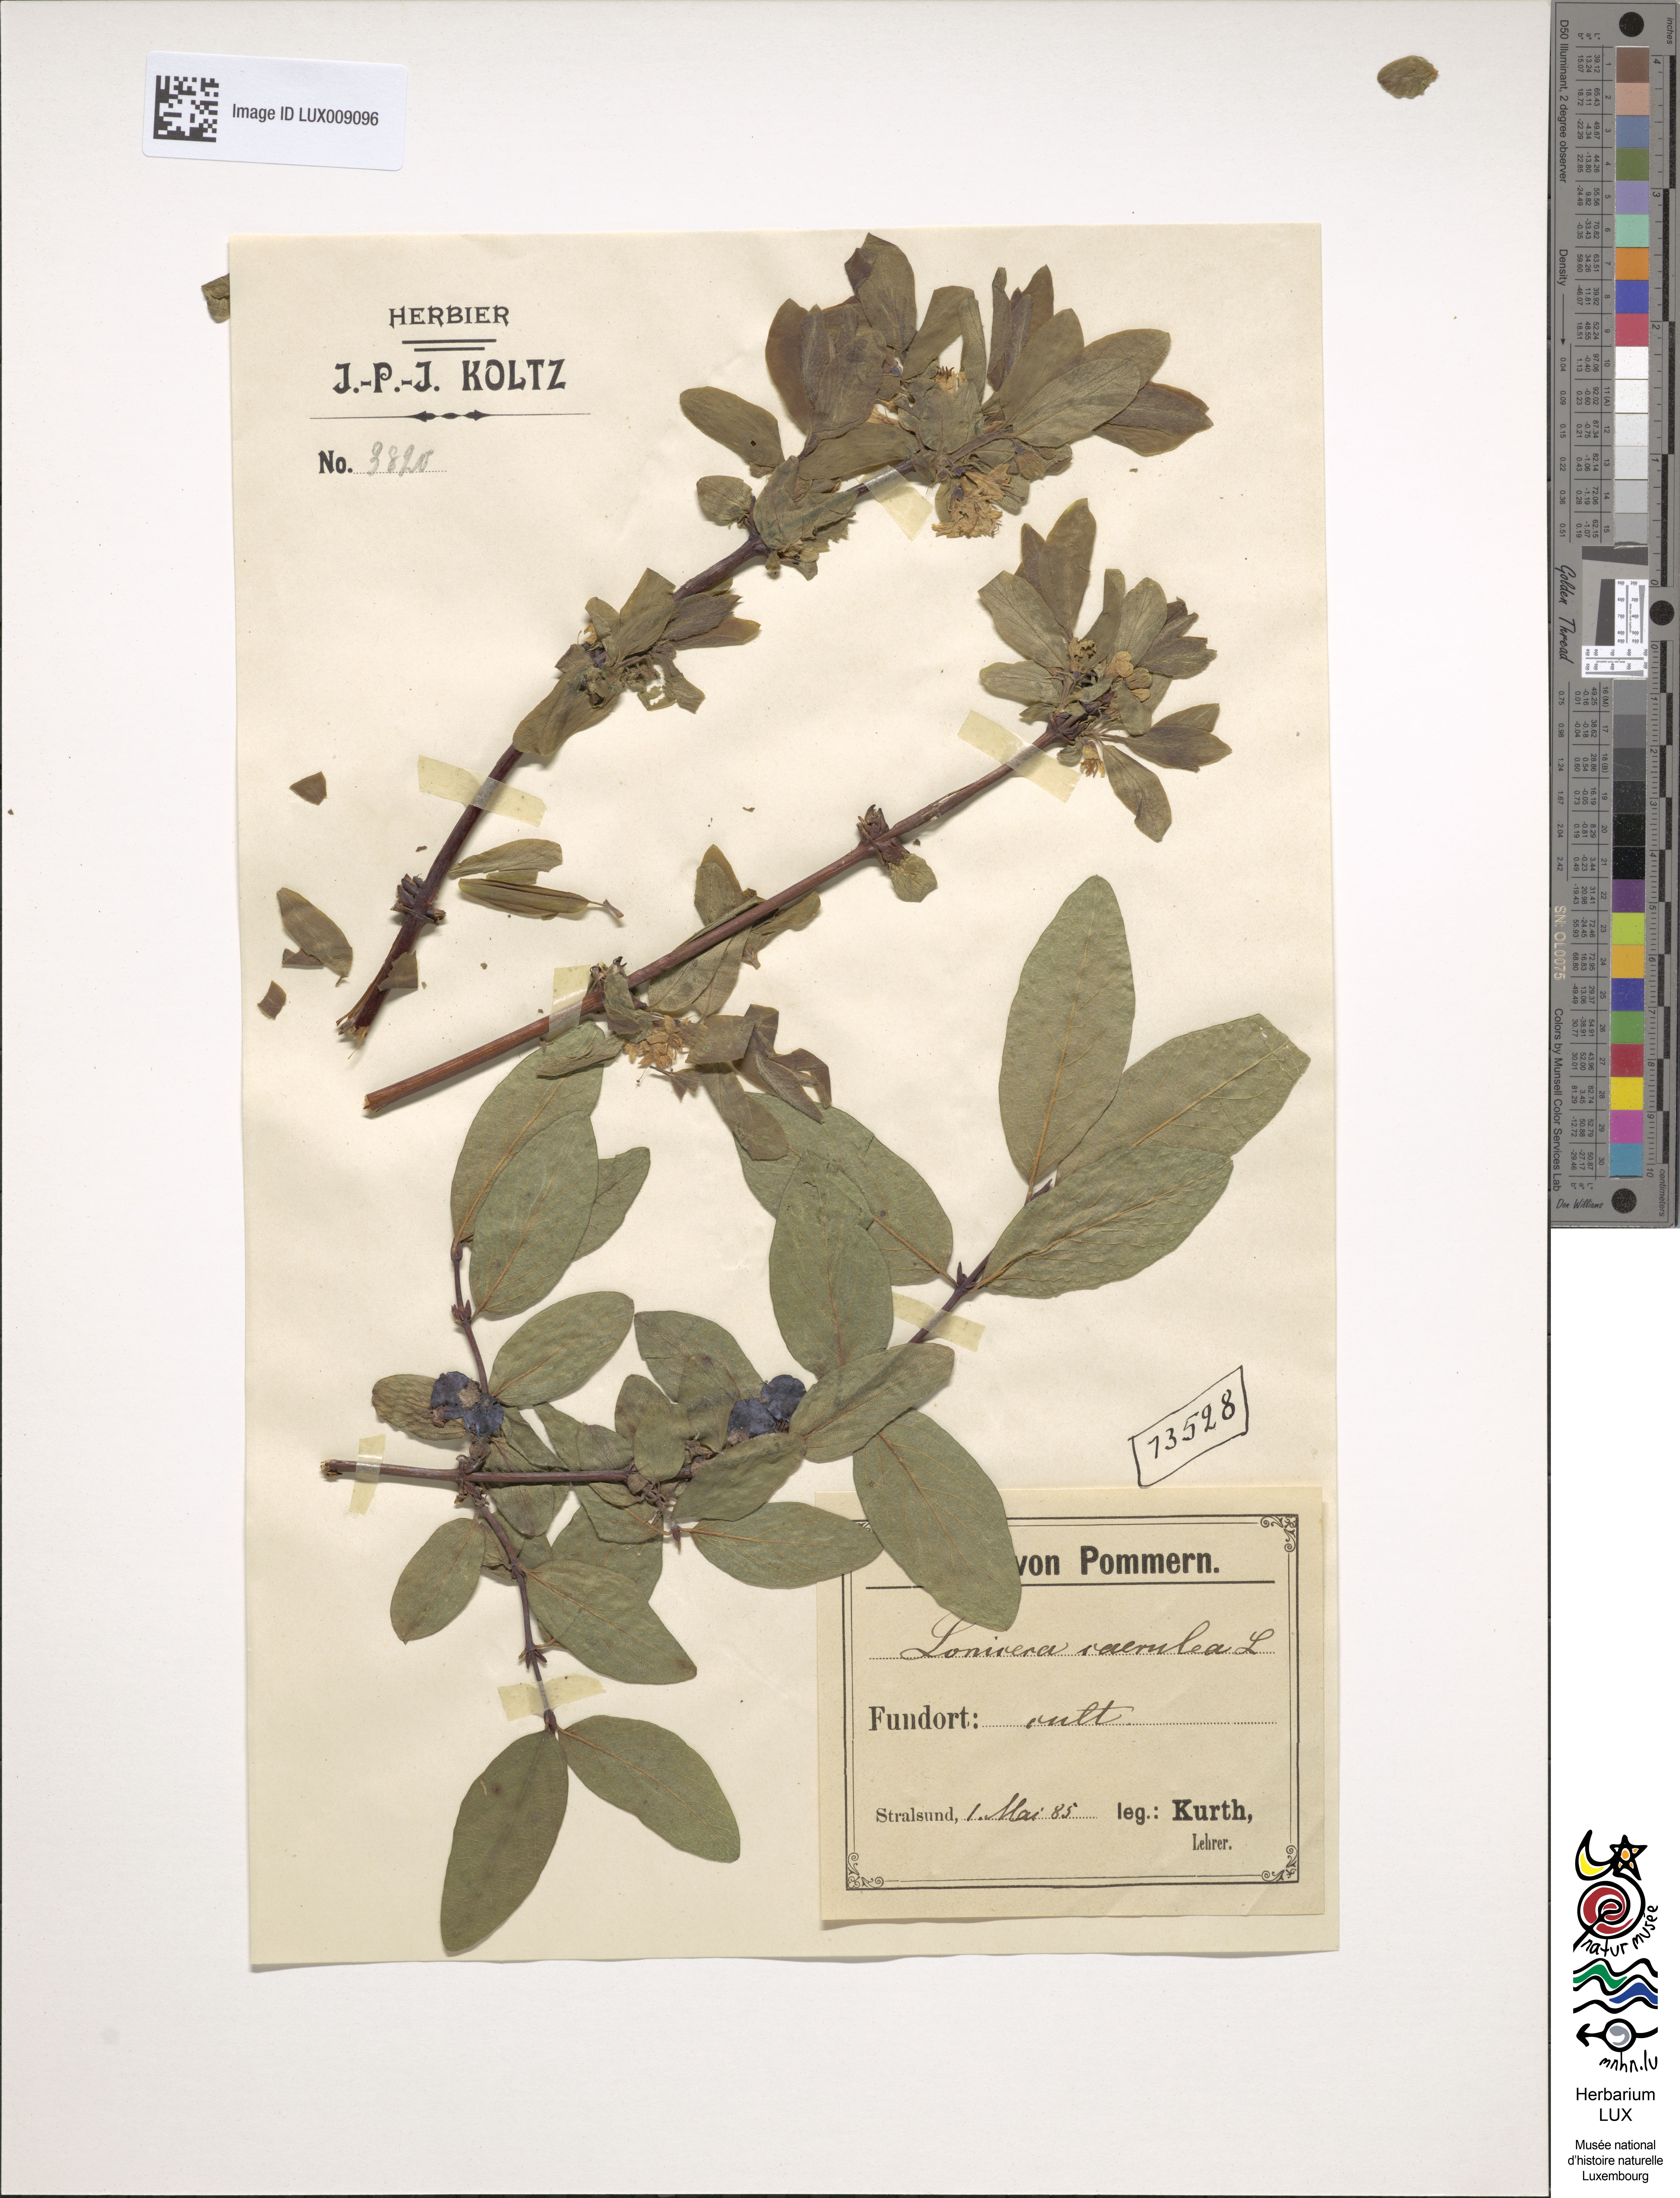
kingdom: Plantae
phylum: Tracheophyta
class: Magnoliopsida
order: Dipsacales
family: Caprifoliaceae
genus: Lonicera
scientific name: Lonicera caerulea
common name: Blue honeysuckle
